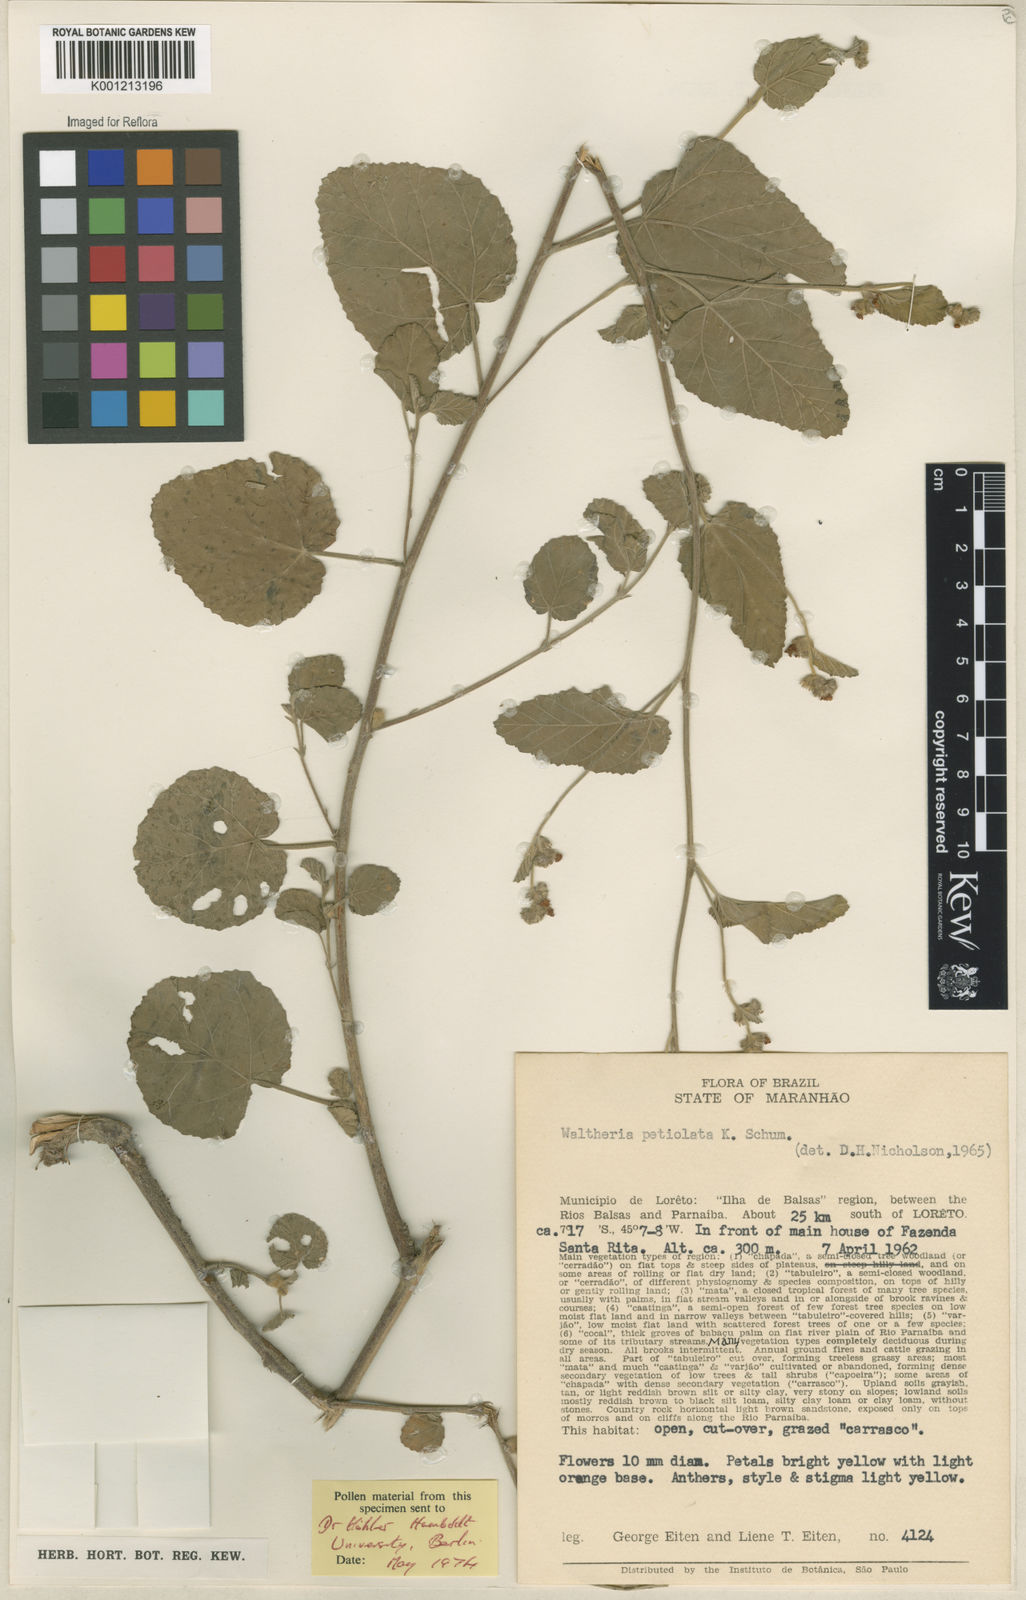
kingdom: Plantae
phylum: Tracheophyta
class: Magnoliopsida
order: Malvales
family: Malvaceae
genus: Waltheria
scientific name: Waltheria petiolata
